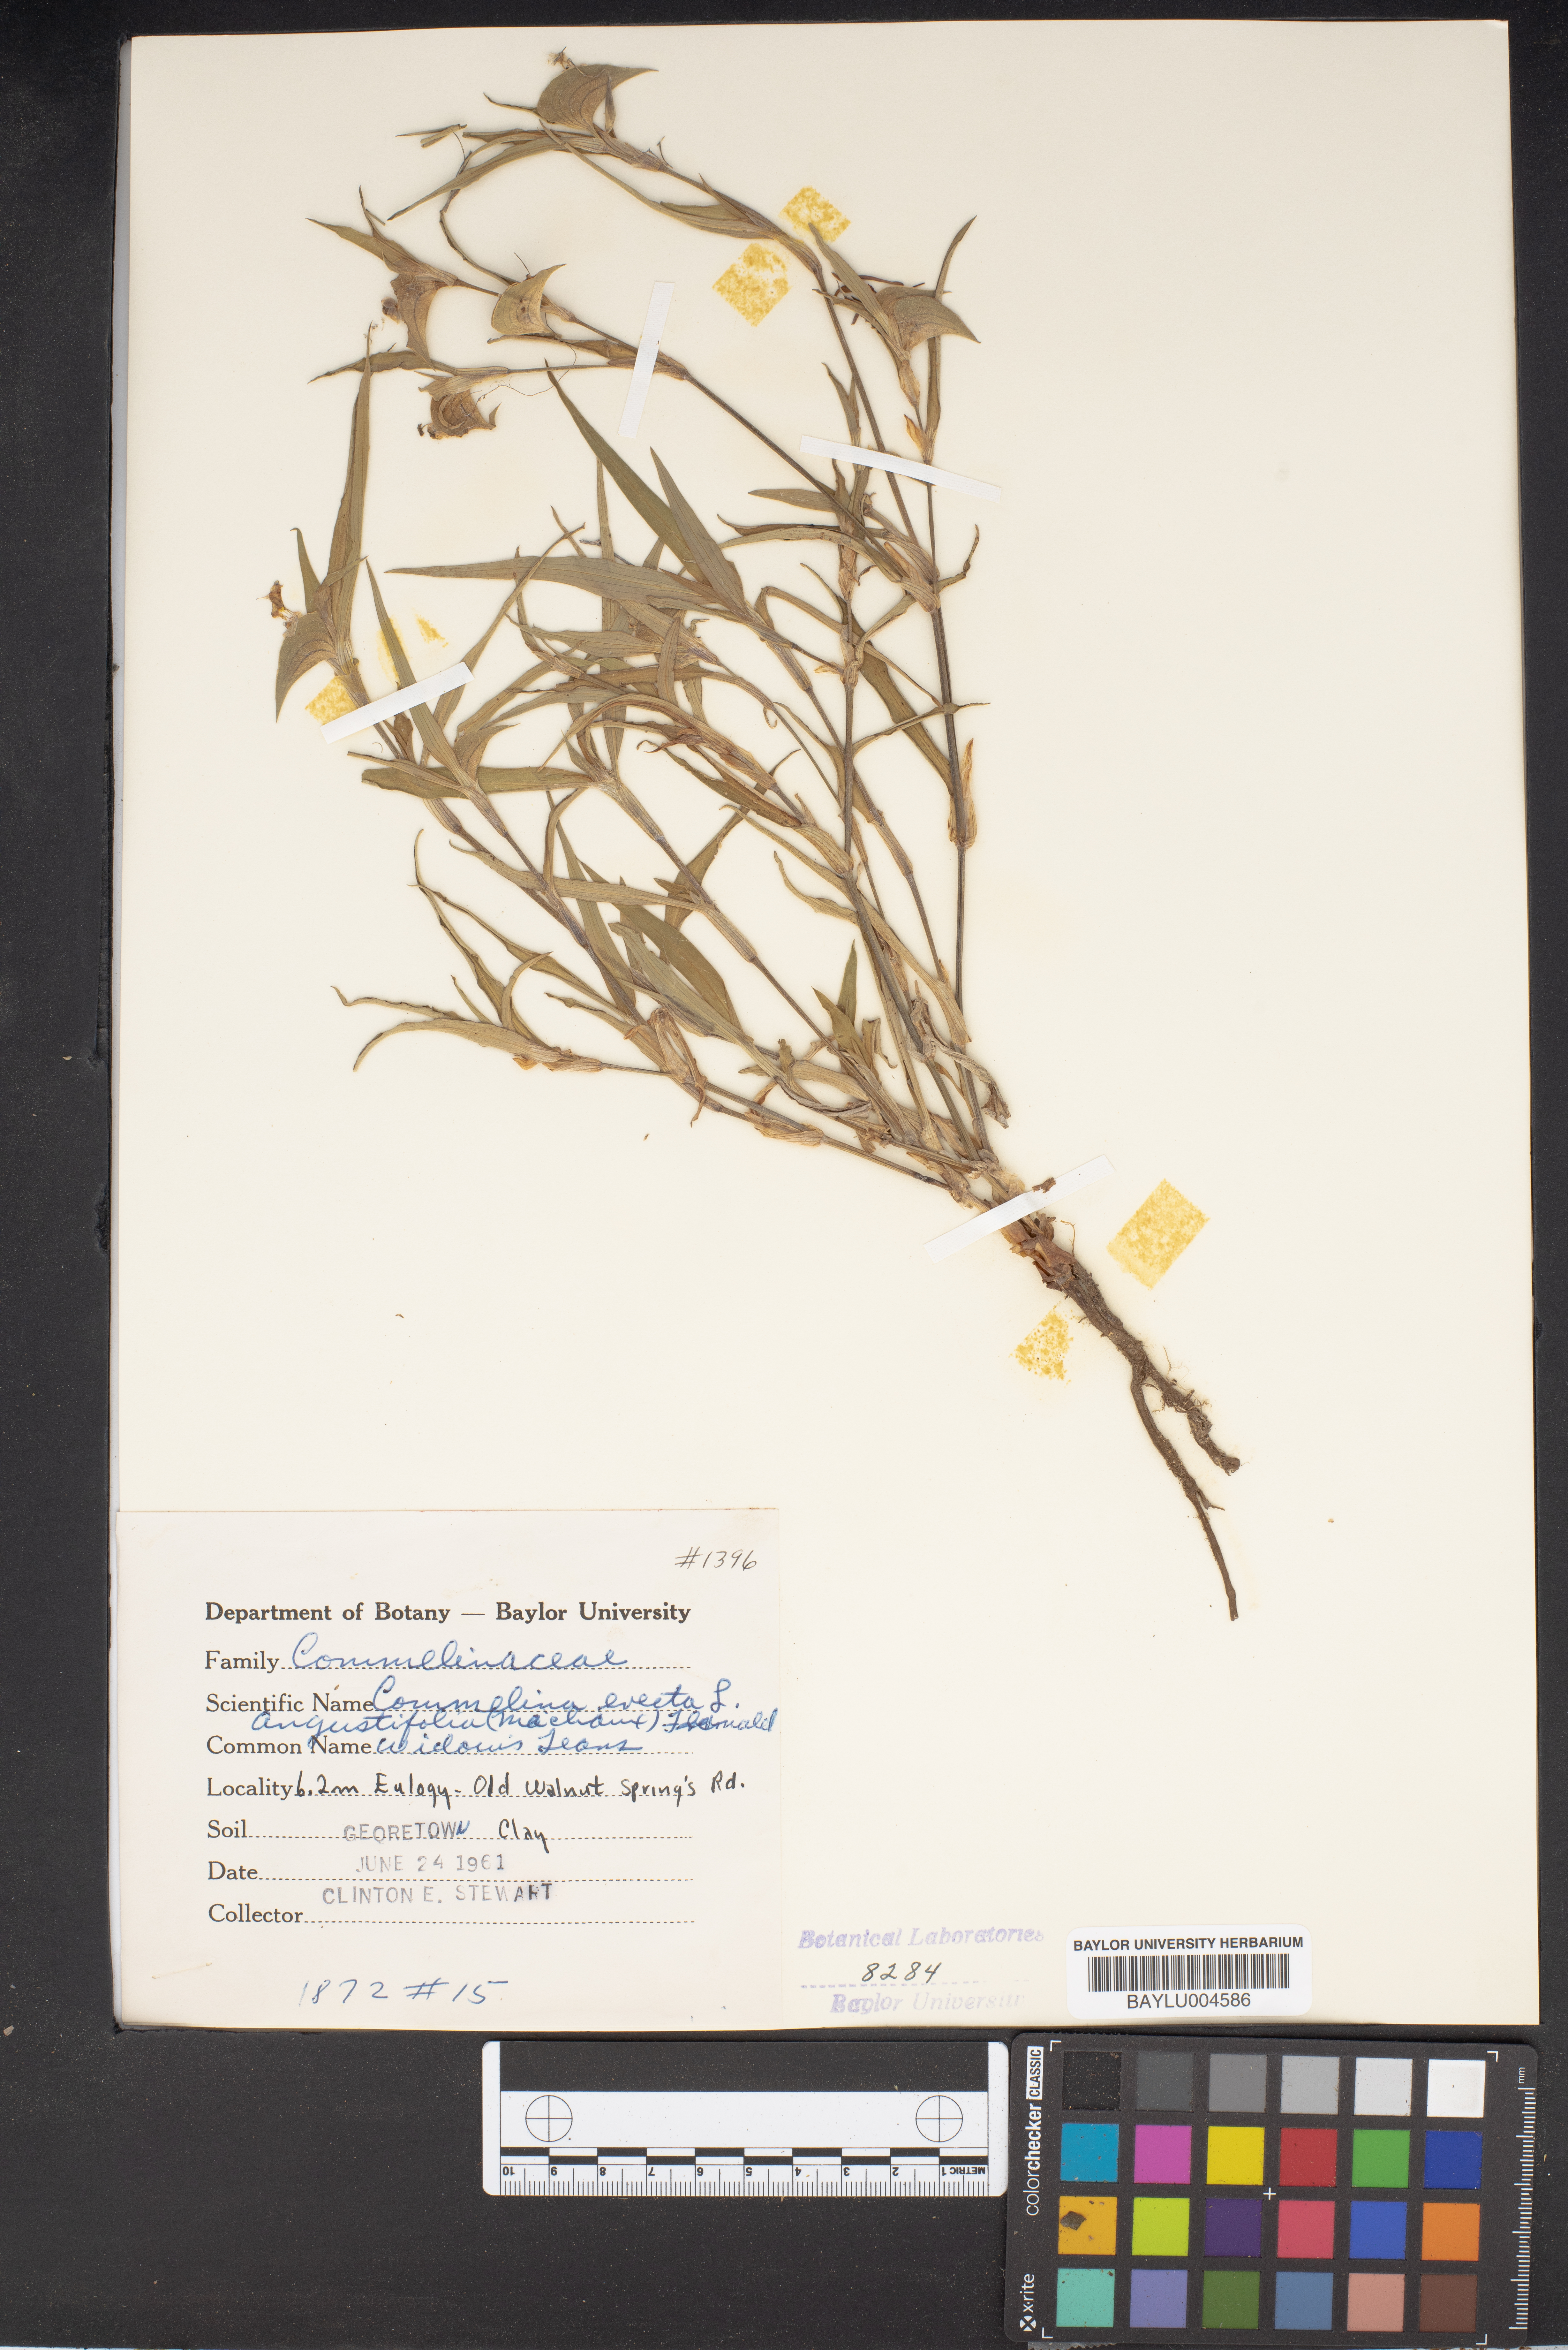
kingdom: Plantae
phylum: Tracheophyta
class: Liliopsida
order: Commelinales
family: Commelinaceae
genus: Commelina
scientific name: Commelina erecta
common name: Blousel blommetjie
